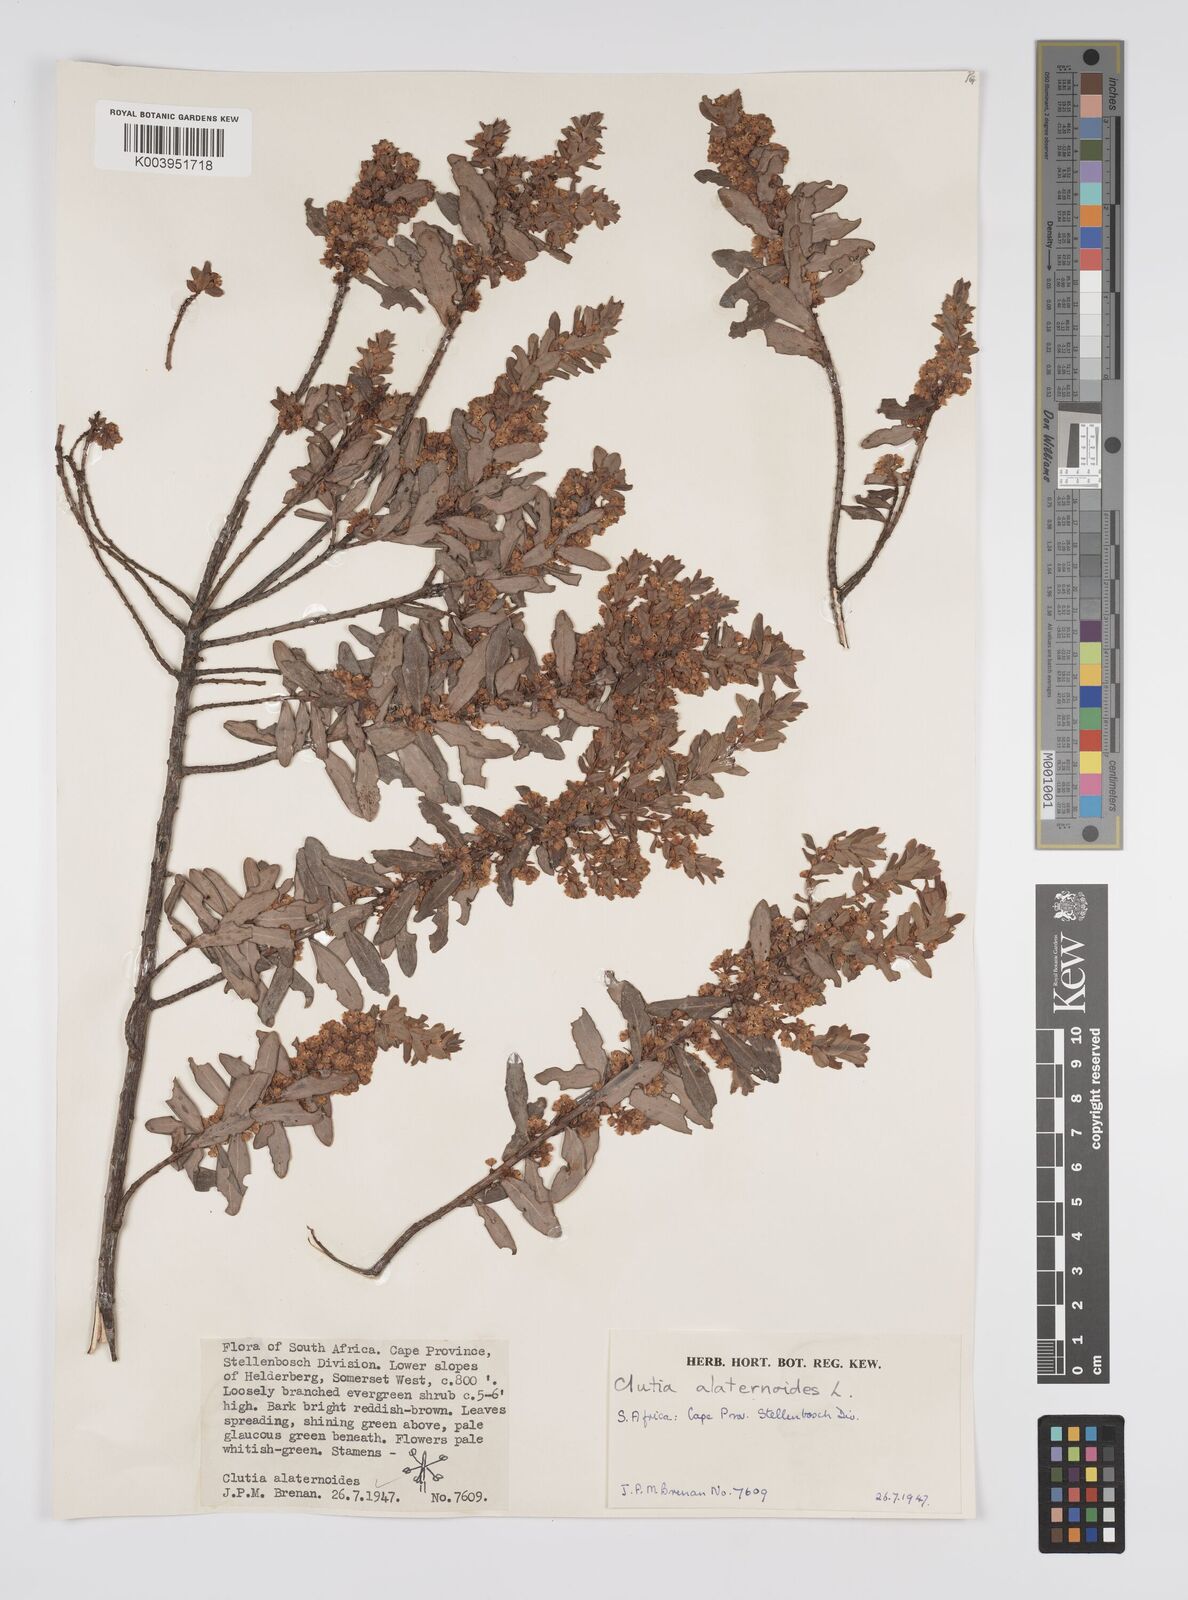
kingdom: Plantae
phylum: Tracheophyta
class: Magnoliopsida
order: Malpighiales
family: Peraceae
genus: Clutia
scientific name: Clutia alaternoides
